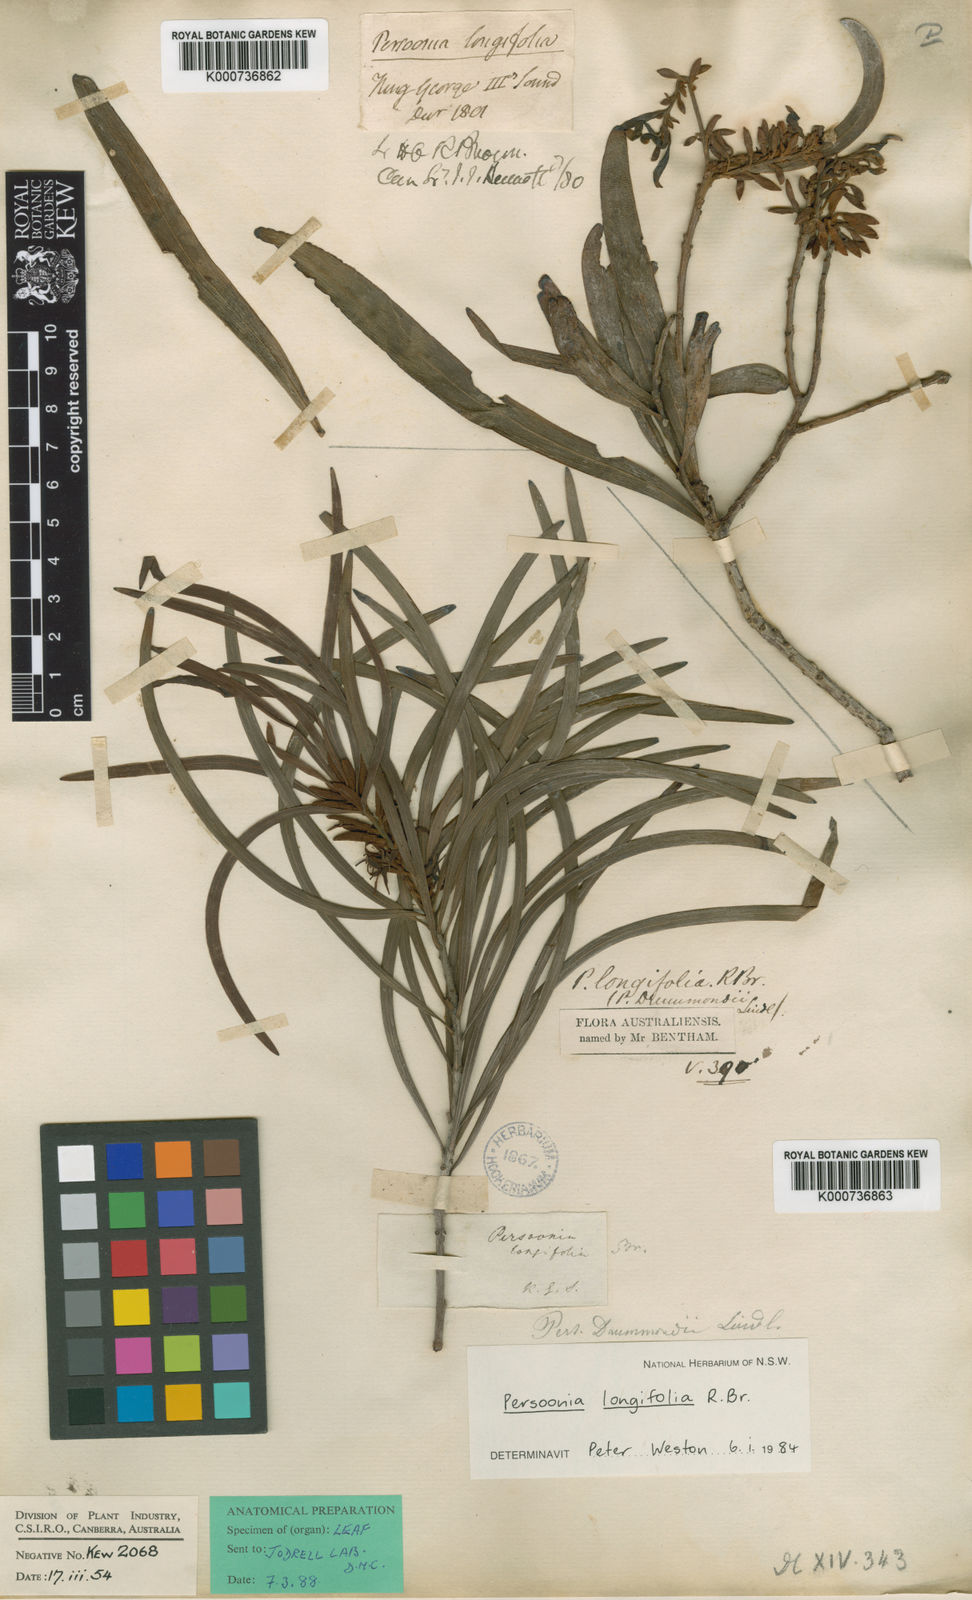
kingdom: Plantae
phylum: Tracheophyta
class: Magnoliopsida
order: Proteales
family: Proteaceae
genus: Persoonia
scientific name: Persoonia longifolia
